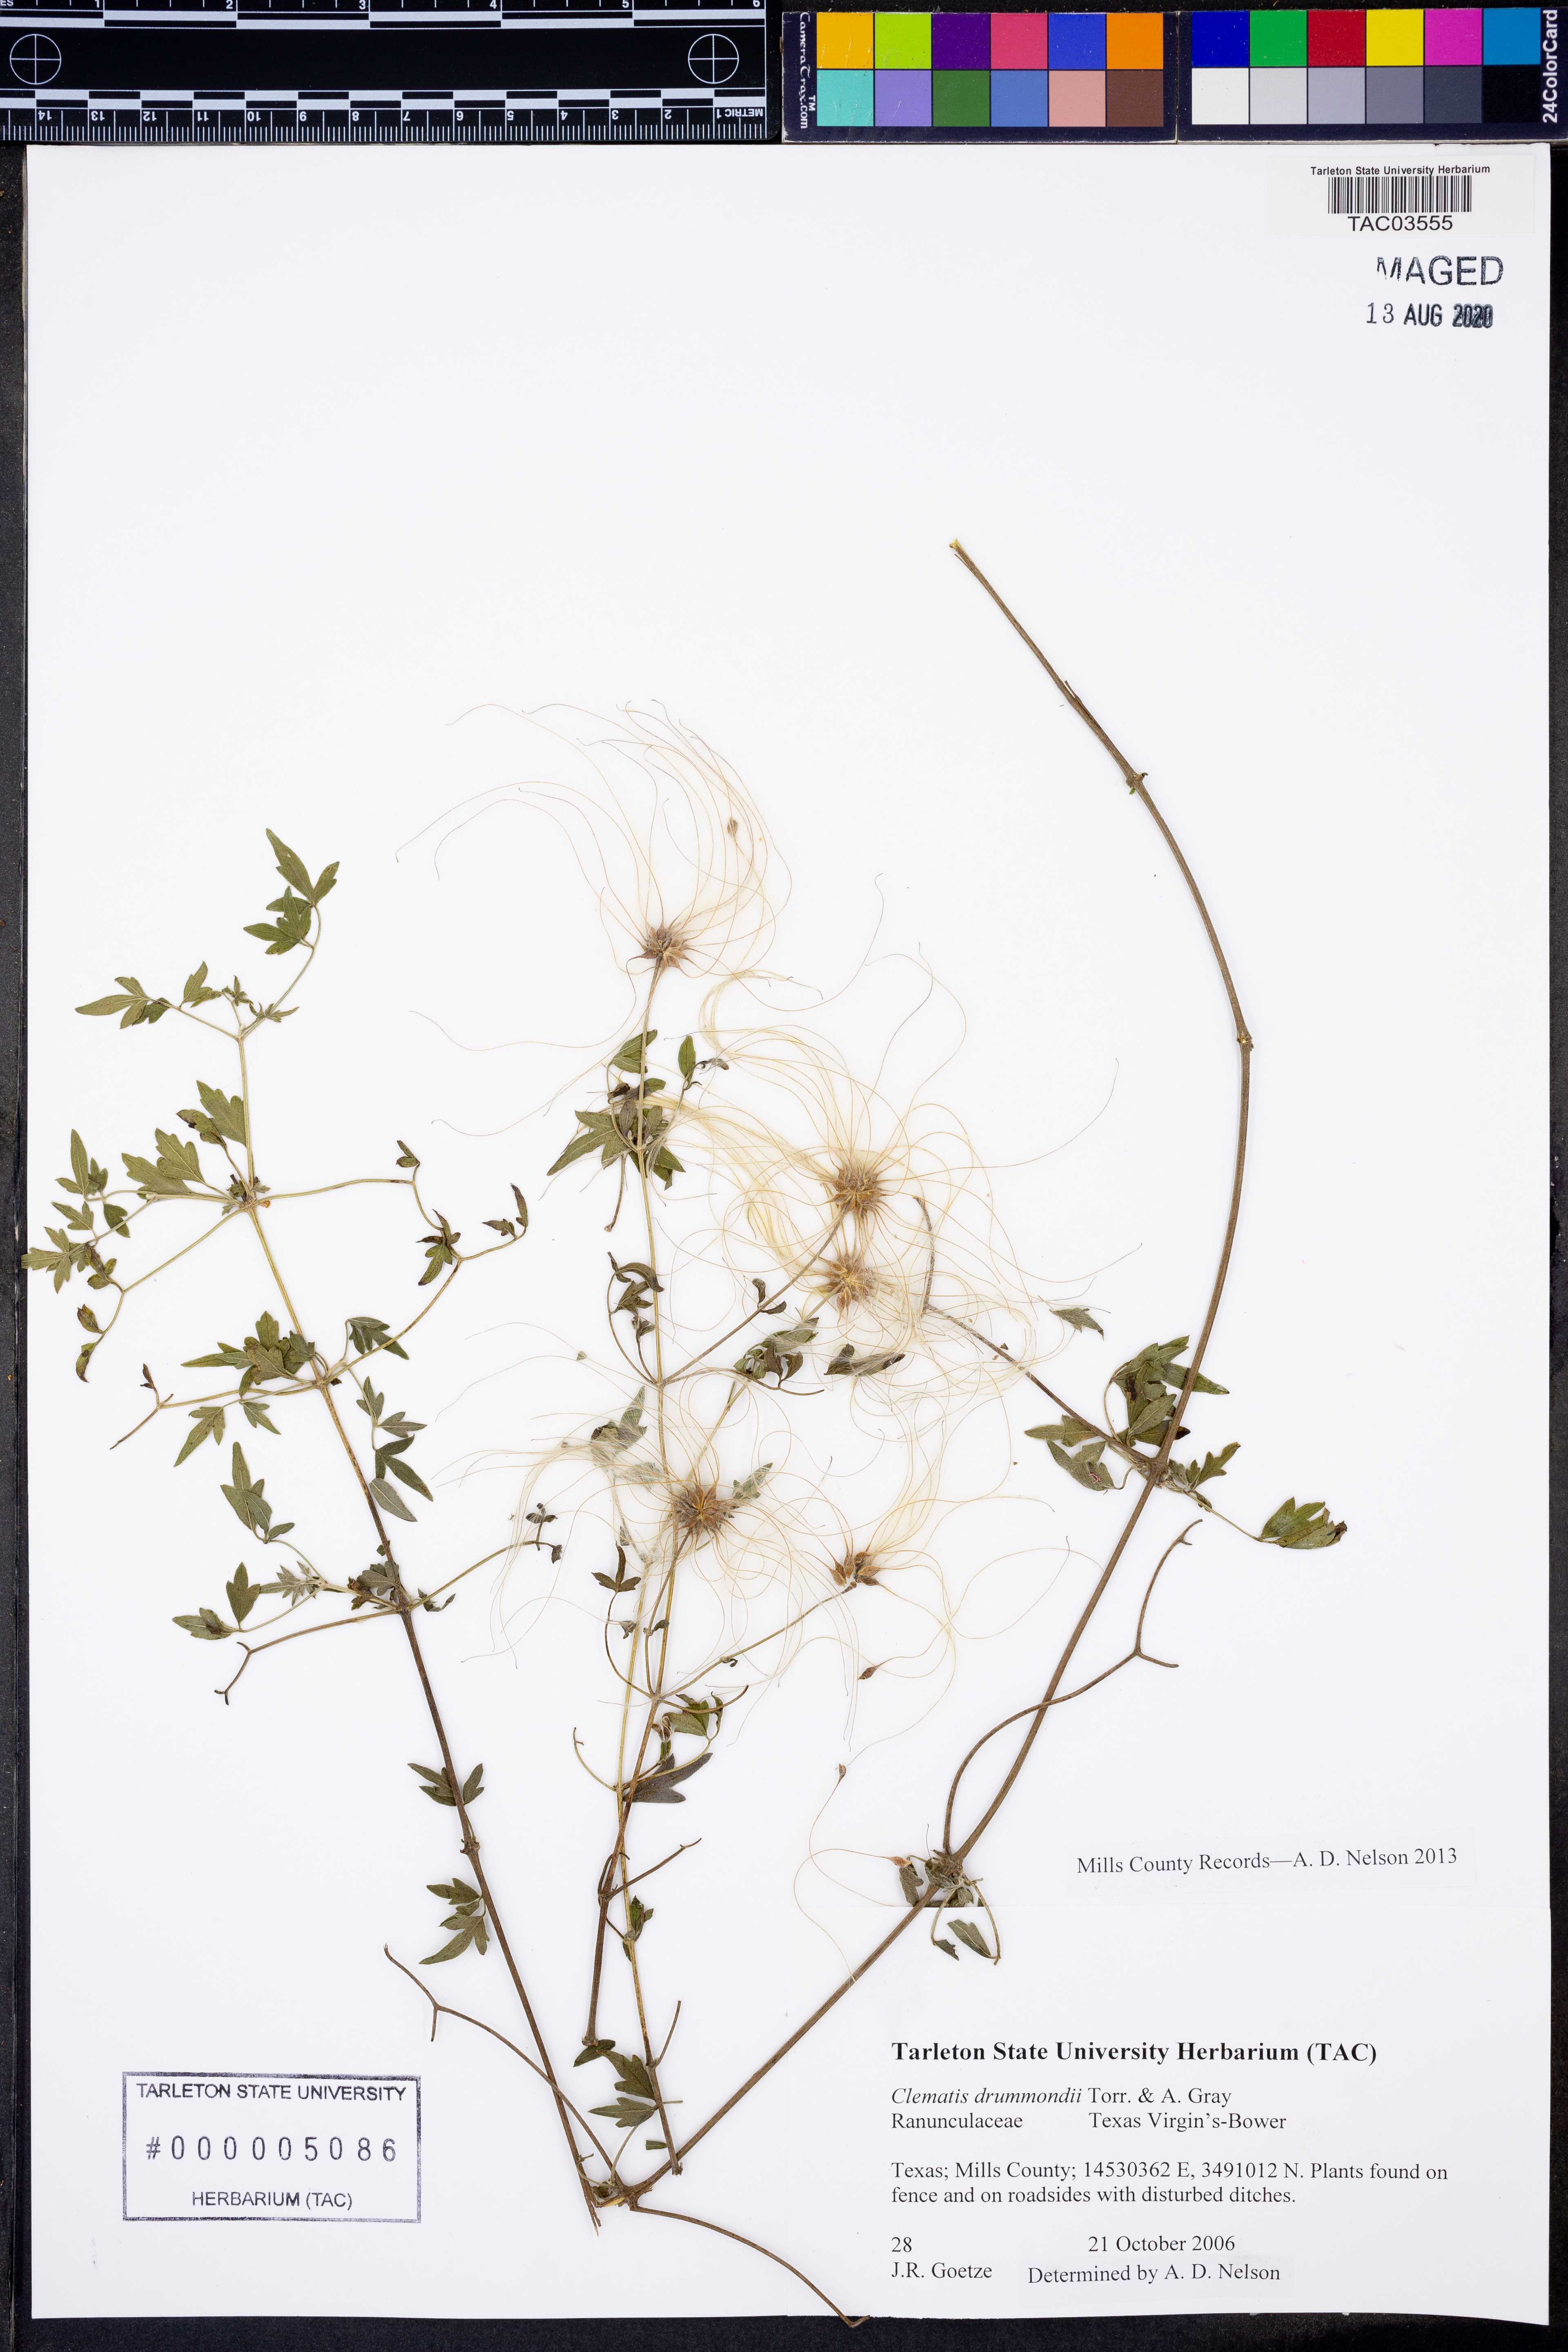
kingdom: Plantae
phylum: Tracheophyta
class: Magnoliopsida
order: Ranunculales
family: Ranunculaceae
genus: Clematis
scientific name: Clematis drummondii
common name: Texas virgin's bower
